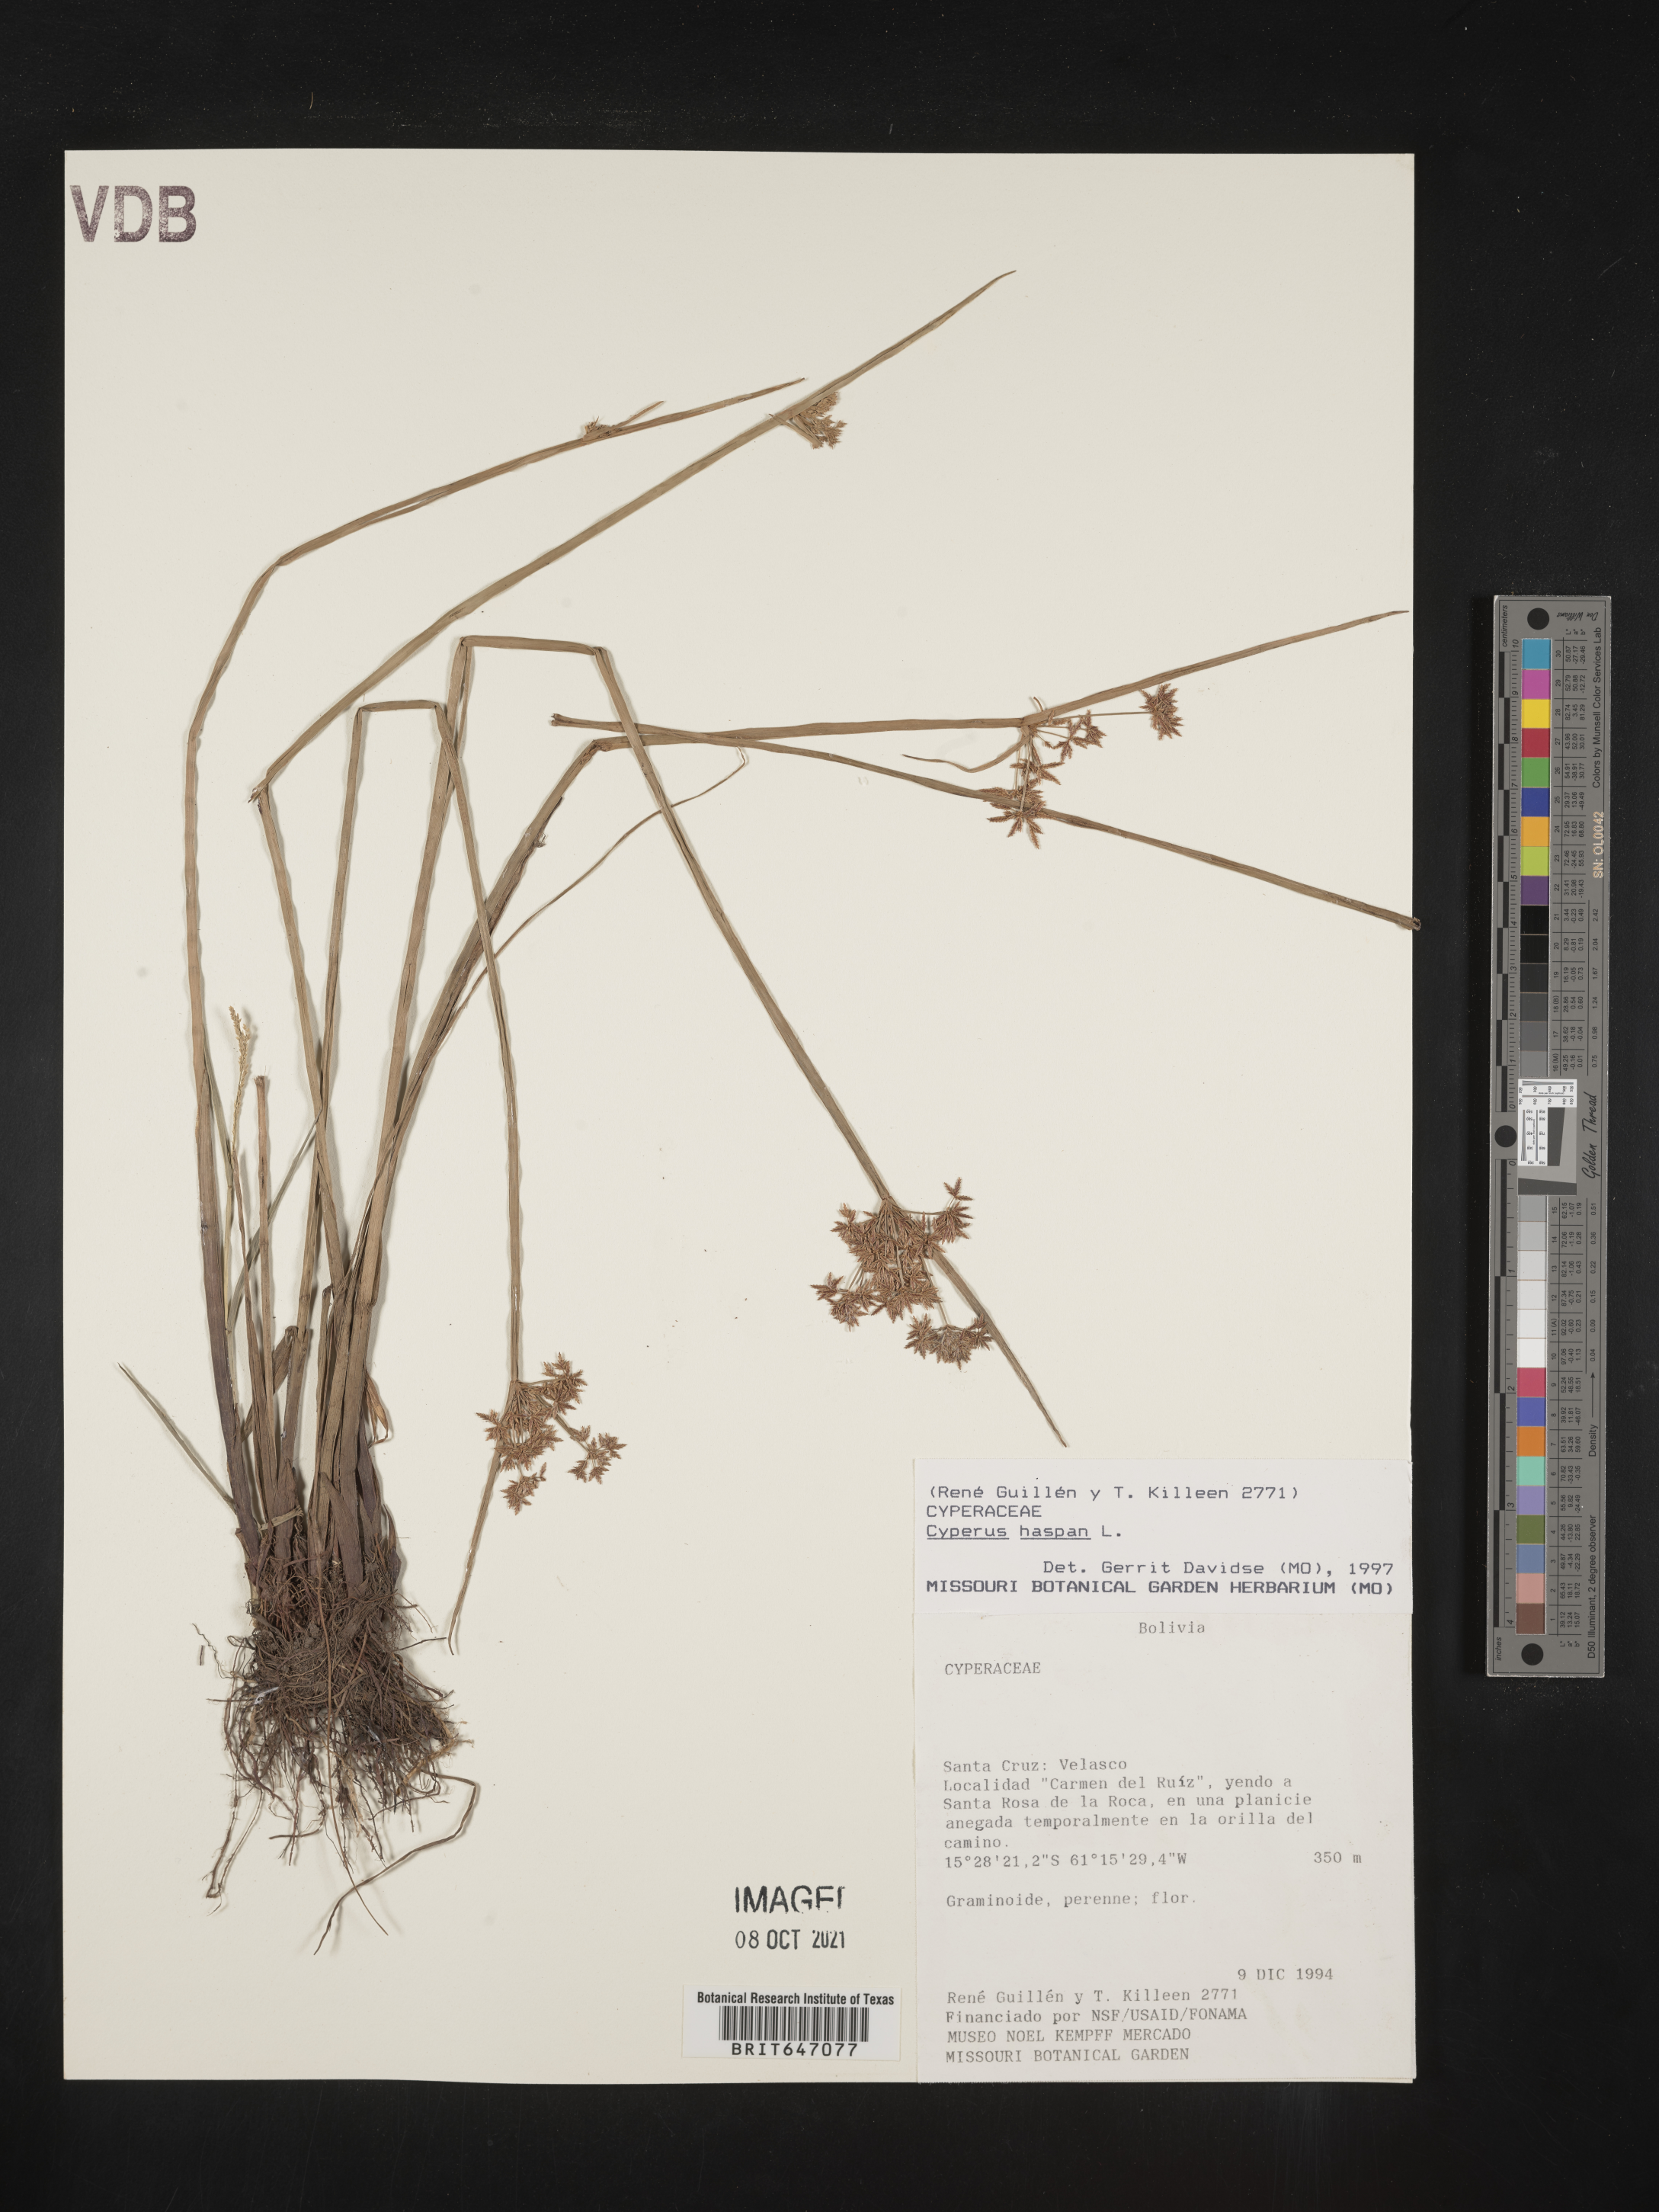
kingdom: Plantae
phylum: Tracheophyta
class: Liliopsida
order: Poales
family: Cyperaceae
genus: Cyperus
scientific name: Cyperus haspan
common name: Haspan flatsedge
